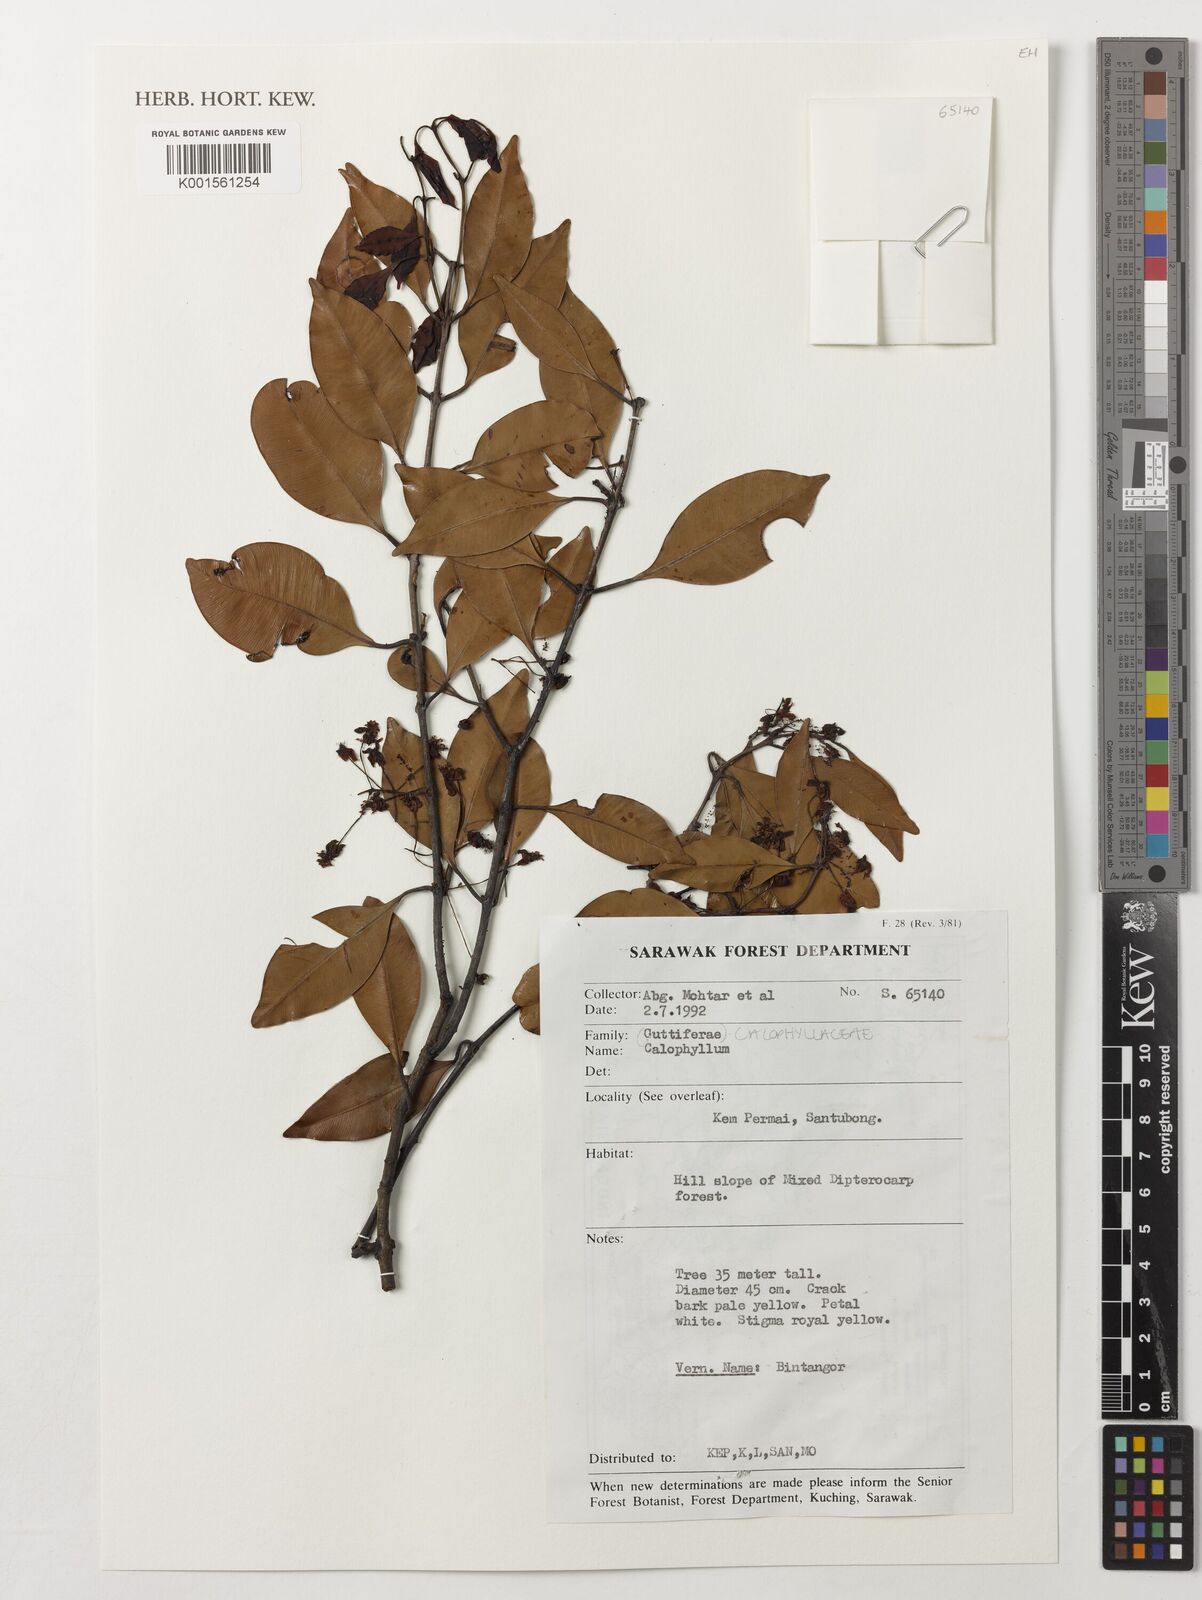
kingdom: Plantae
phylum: Tracheophyta
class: Magnoliopsida
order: Malpighiales
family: Calophyllaceae
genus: Calophyllum
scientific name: Calophyllum
